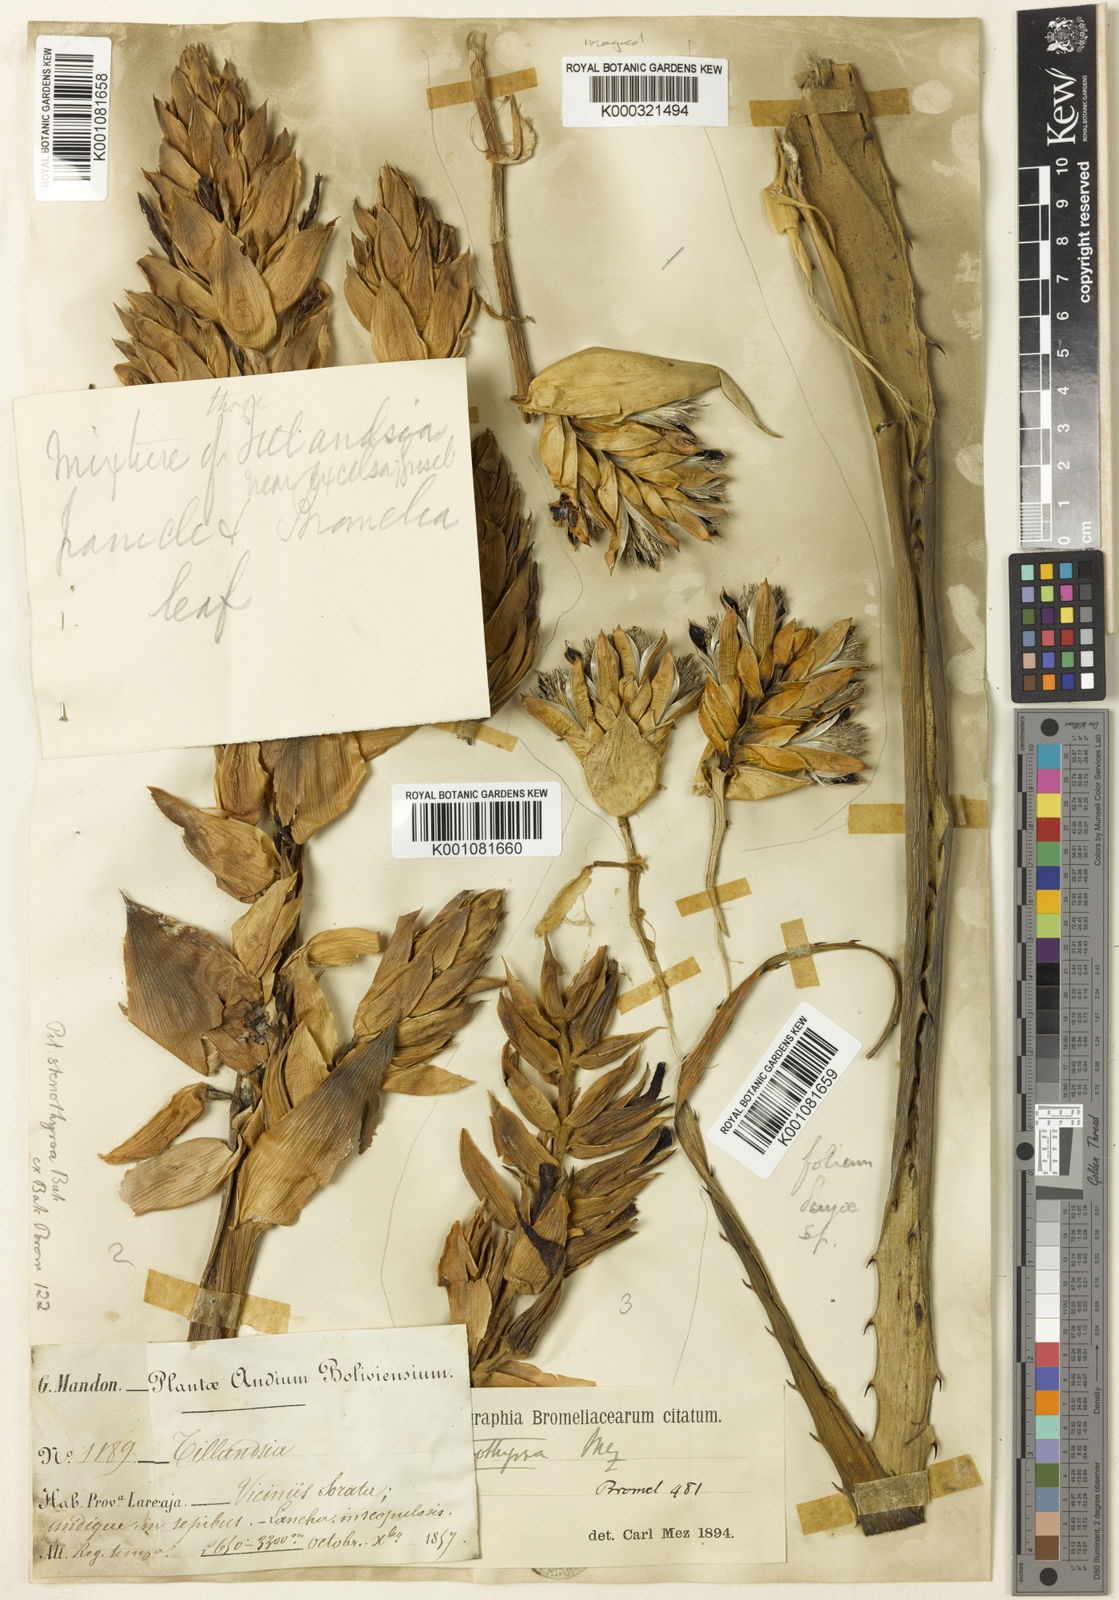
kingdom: Plantae
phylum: Tracheophyta
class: Liliopsida
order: Poales
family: Bromeliaceae
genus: Puya
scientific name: Puya stenothyrsa
